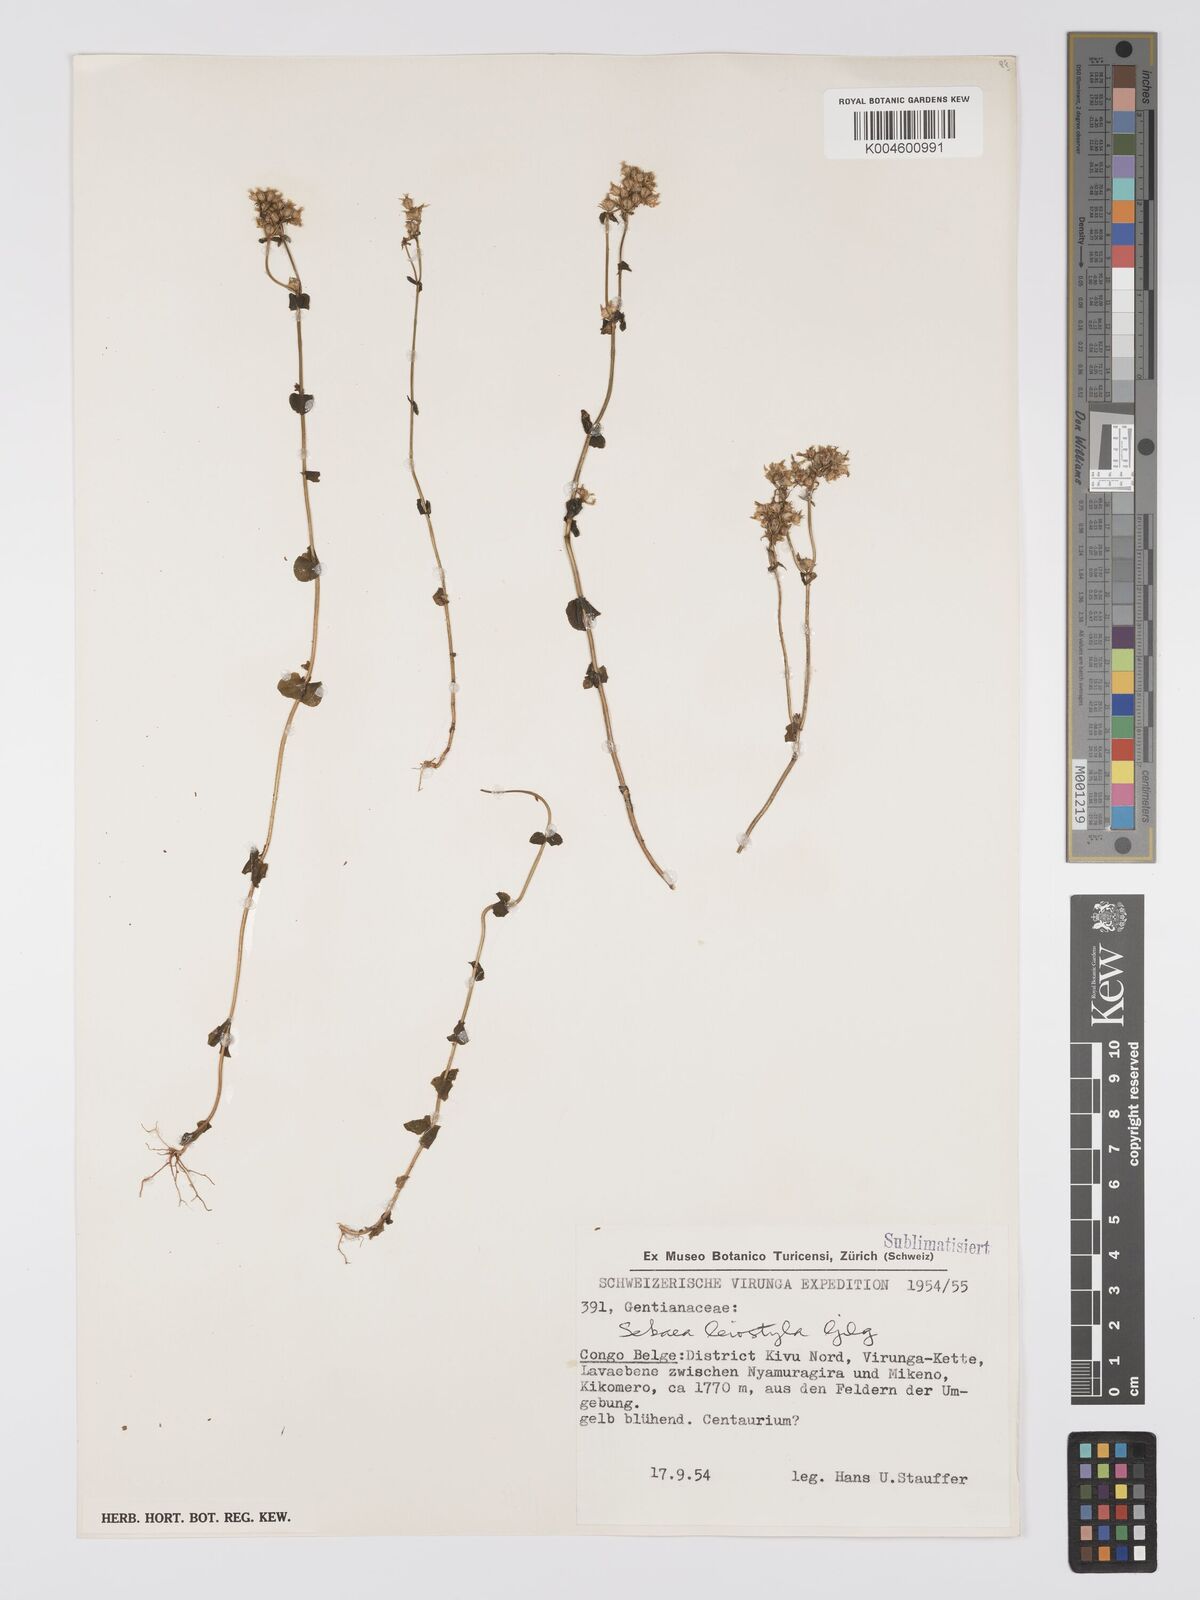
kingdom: Plantae
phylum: Tracheophyta
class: Magnoliopsida
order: Gentianales
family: Gentianaceae
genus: Sebaea
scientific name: Sebaea leiostyla
